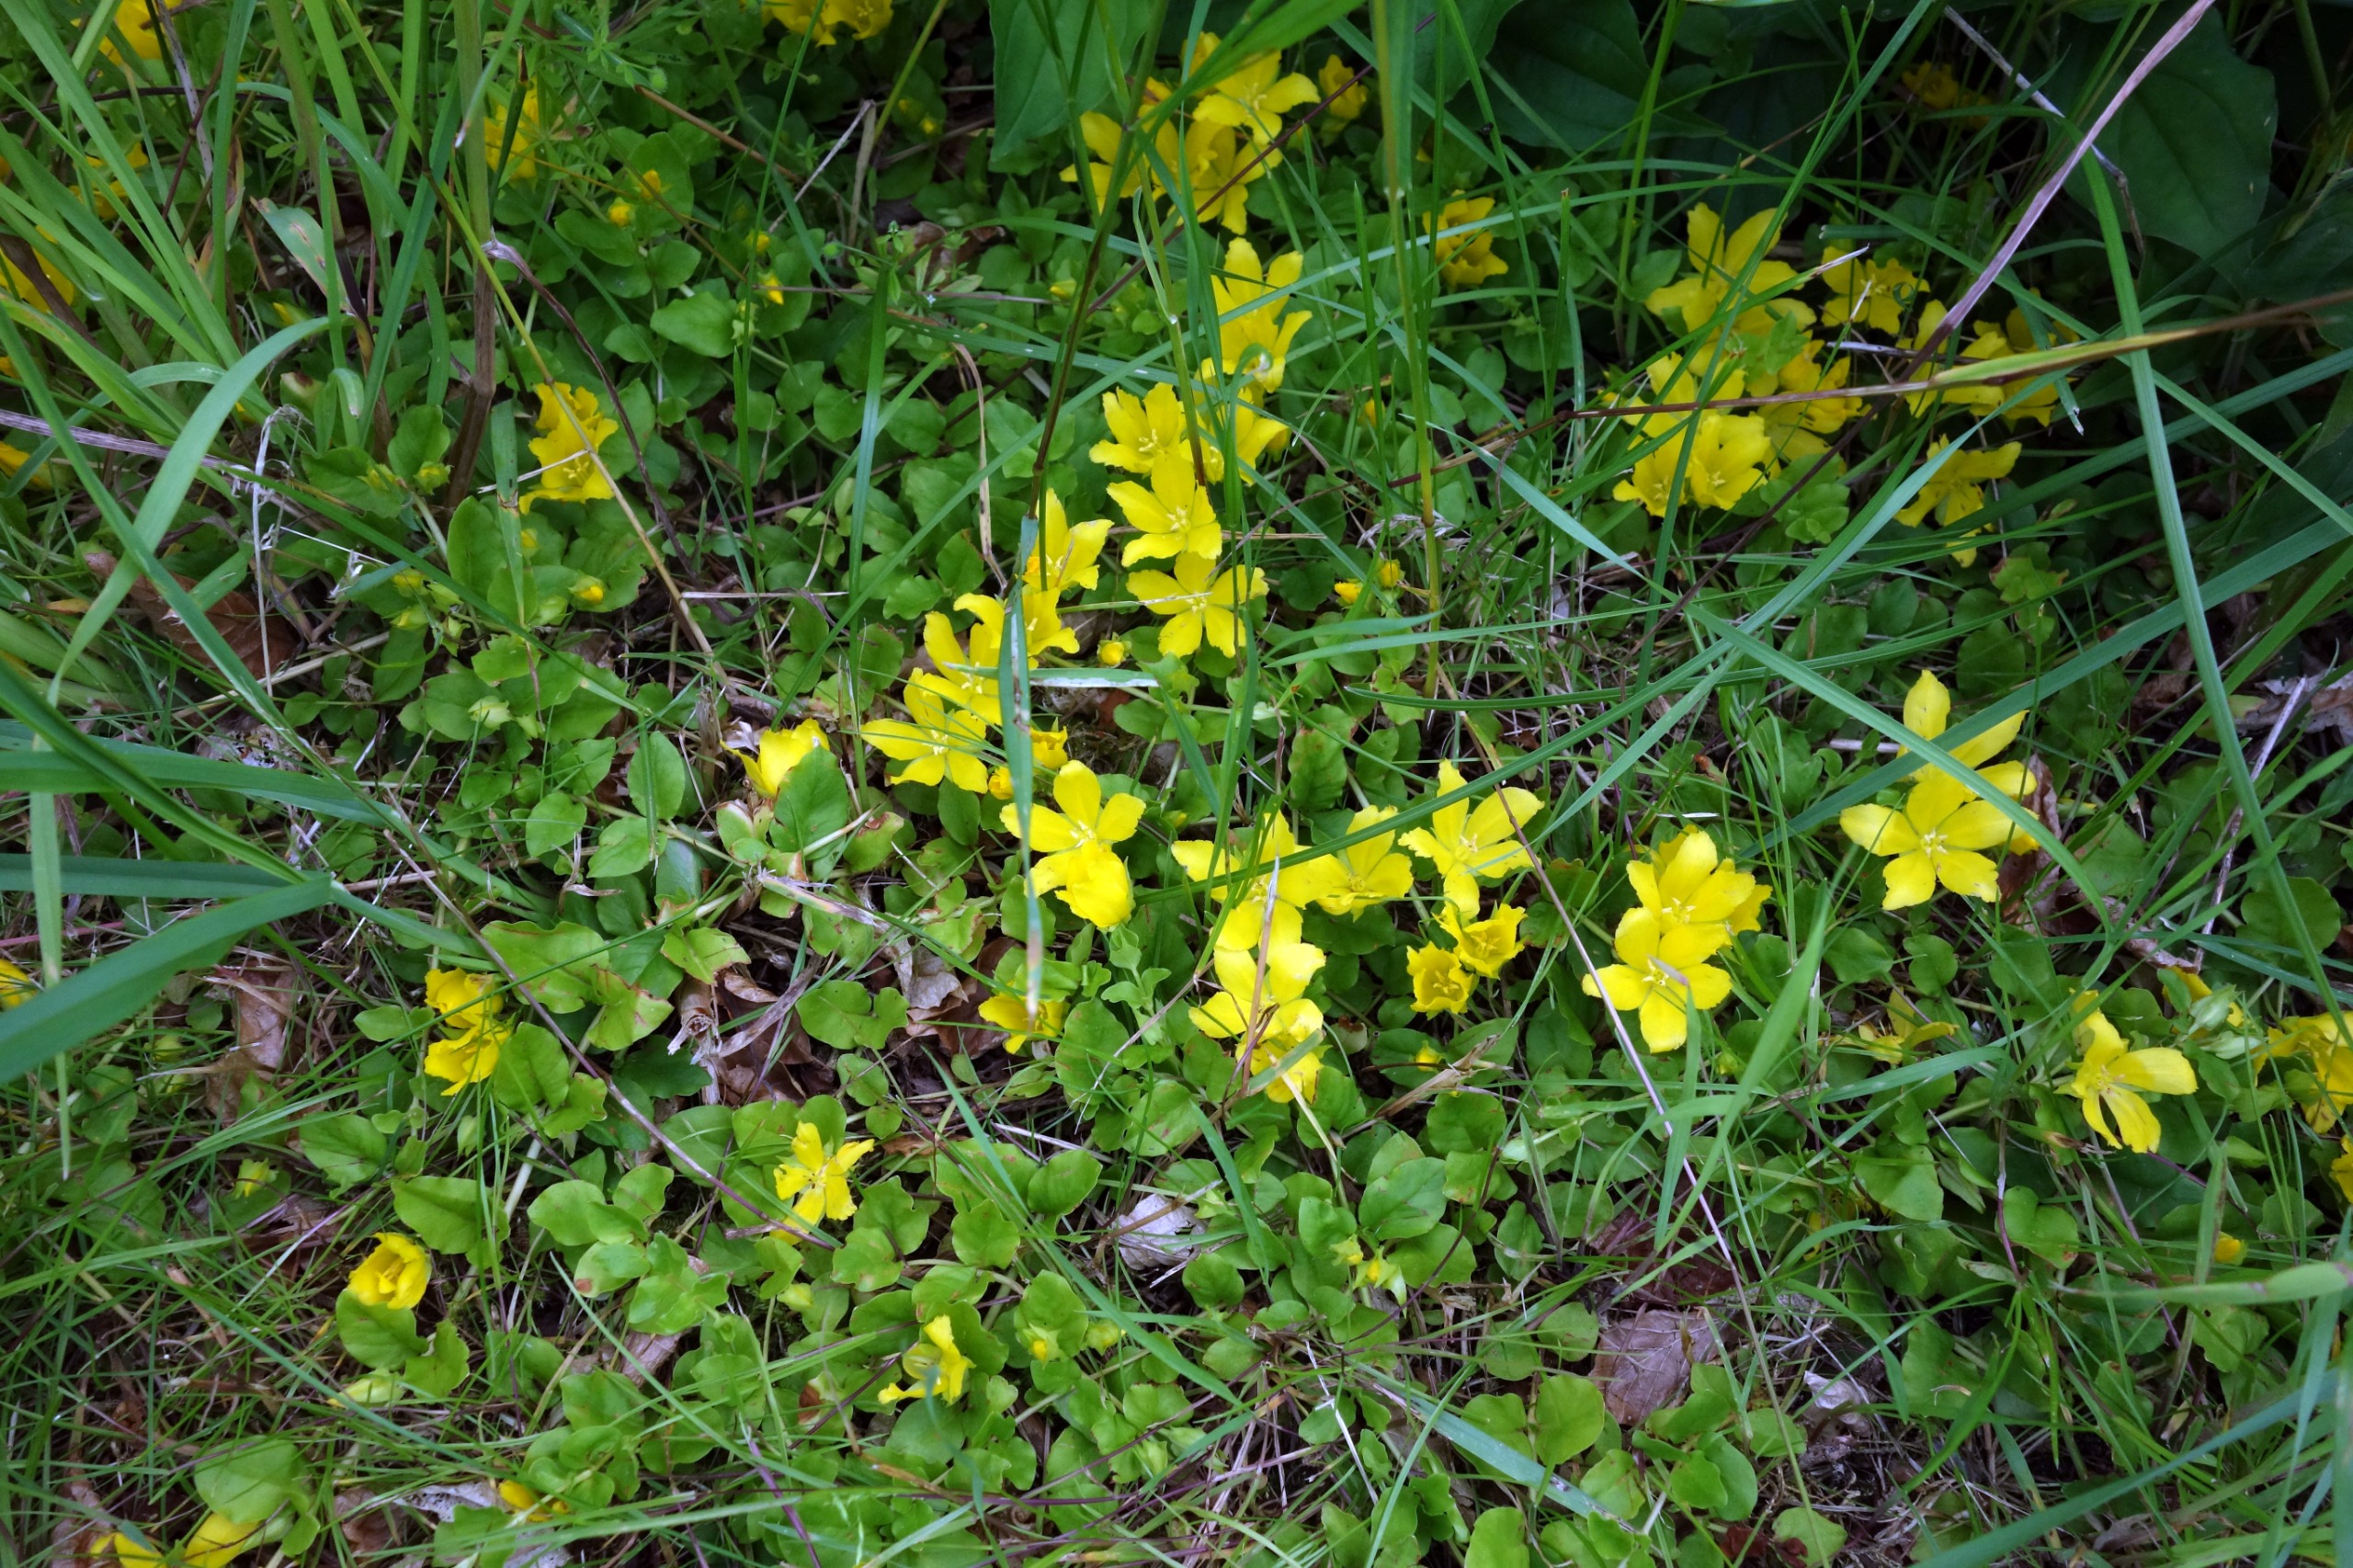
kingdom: Plantae
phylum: Tracheophyta
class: Magnoliopsida
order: Ericales
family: Primulaceae
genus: Lysimachia
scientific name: Lysimachia nummularia
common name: Pengebladet fredløs
